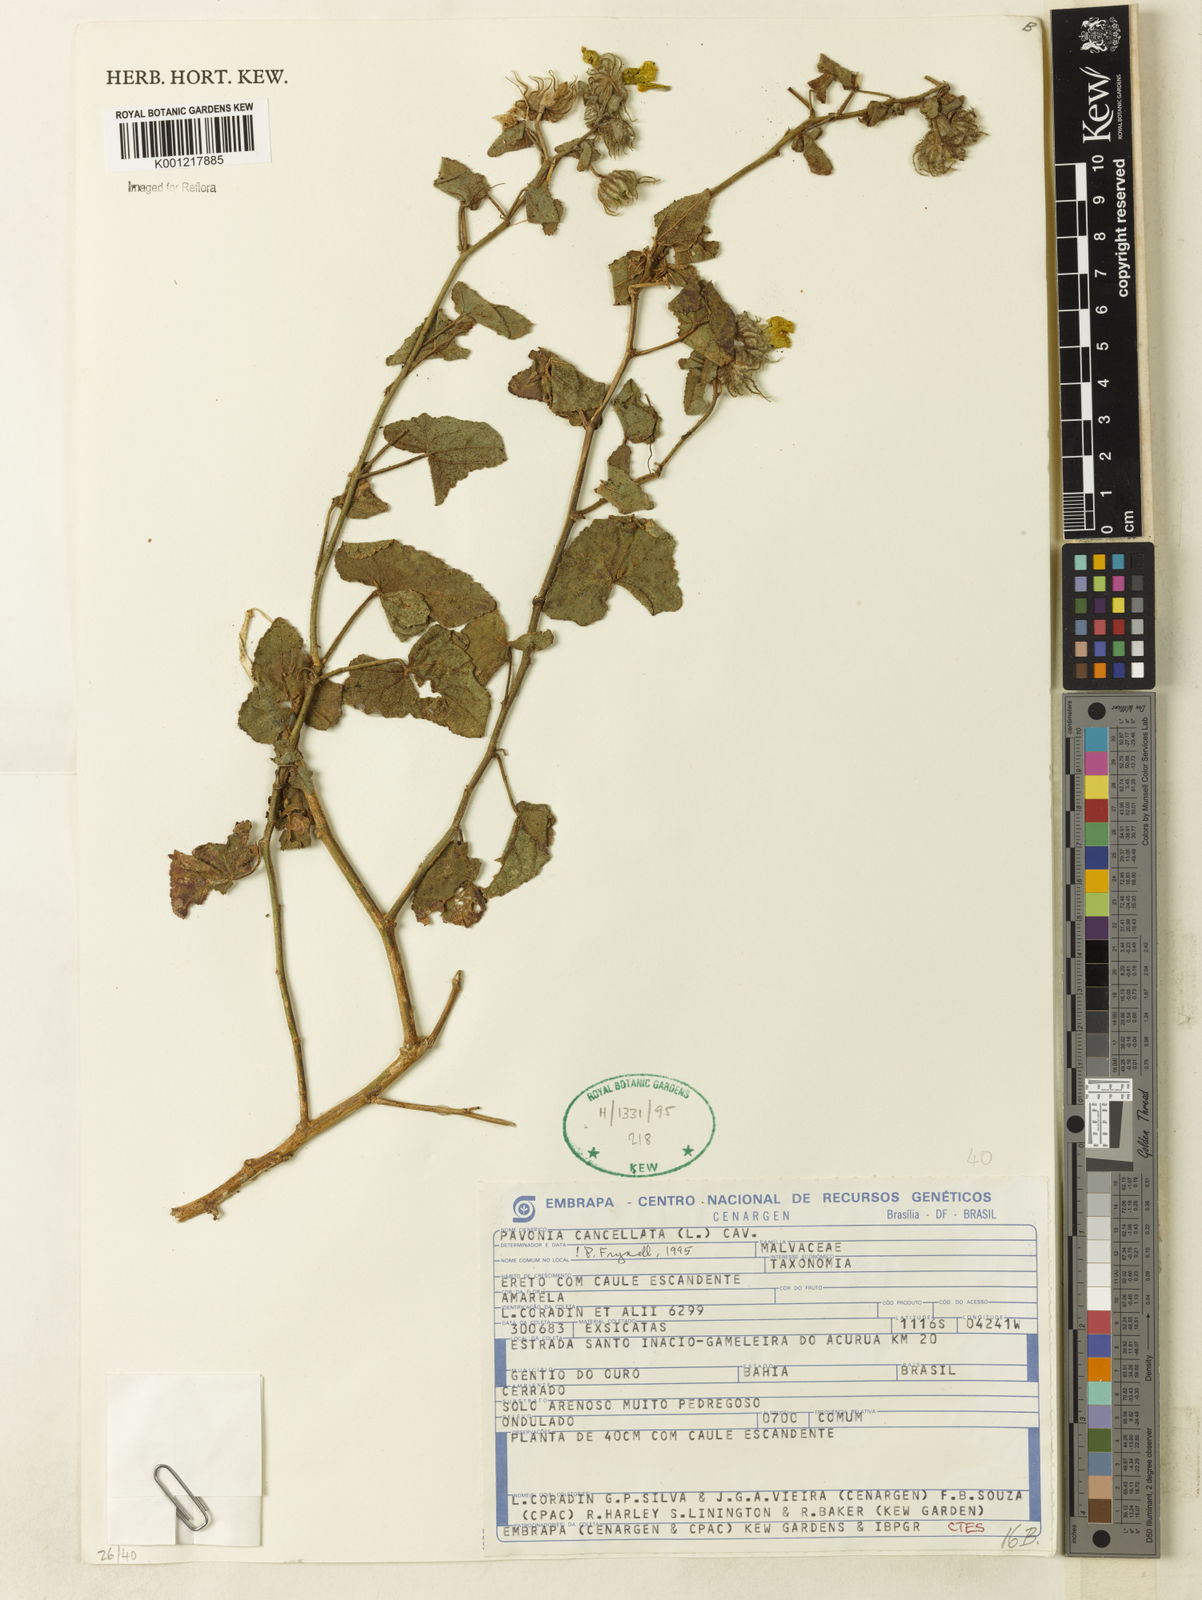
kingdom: Plantae
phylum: Tracheophyta
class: Magnoliopsida
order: Malvales
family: Malvaceae
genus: Pavonia
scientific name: Pavonia cancellata
